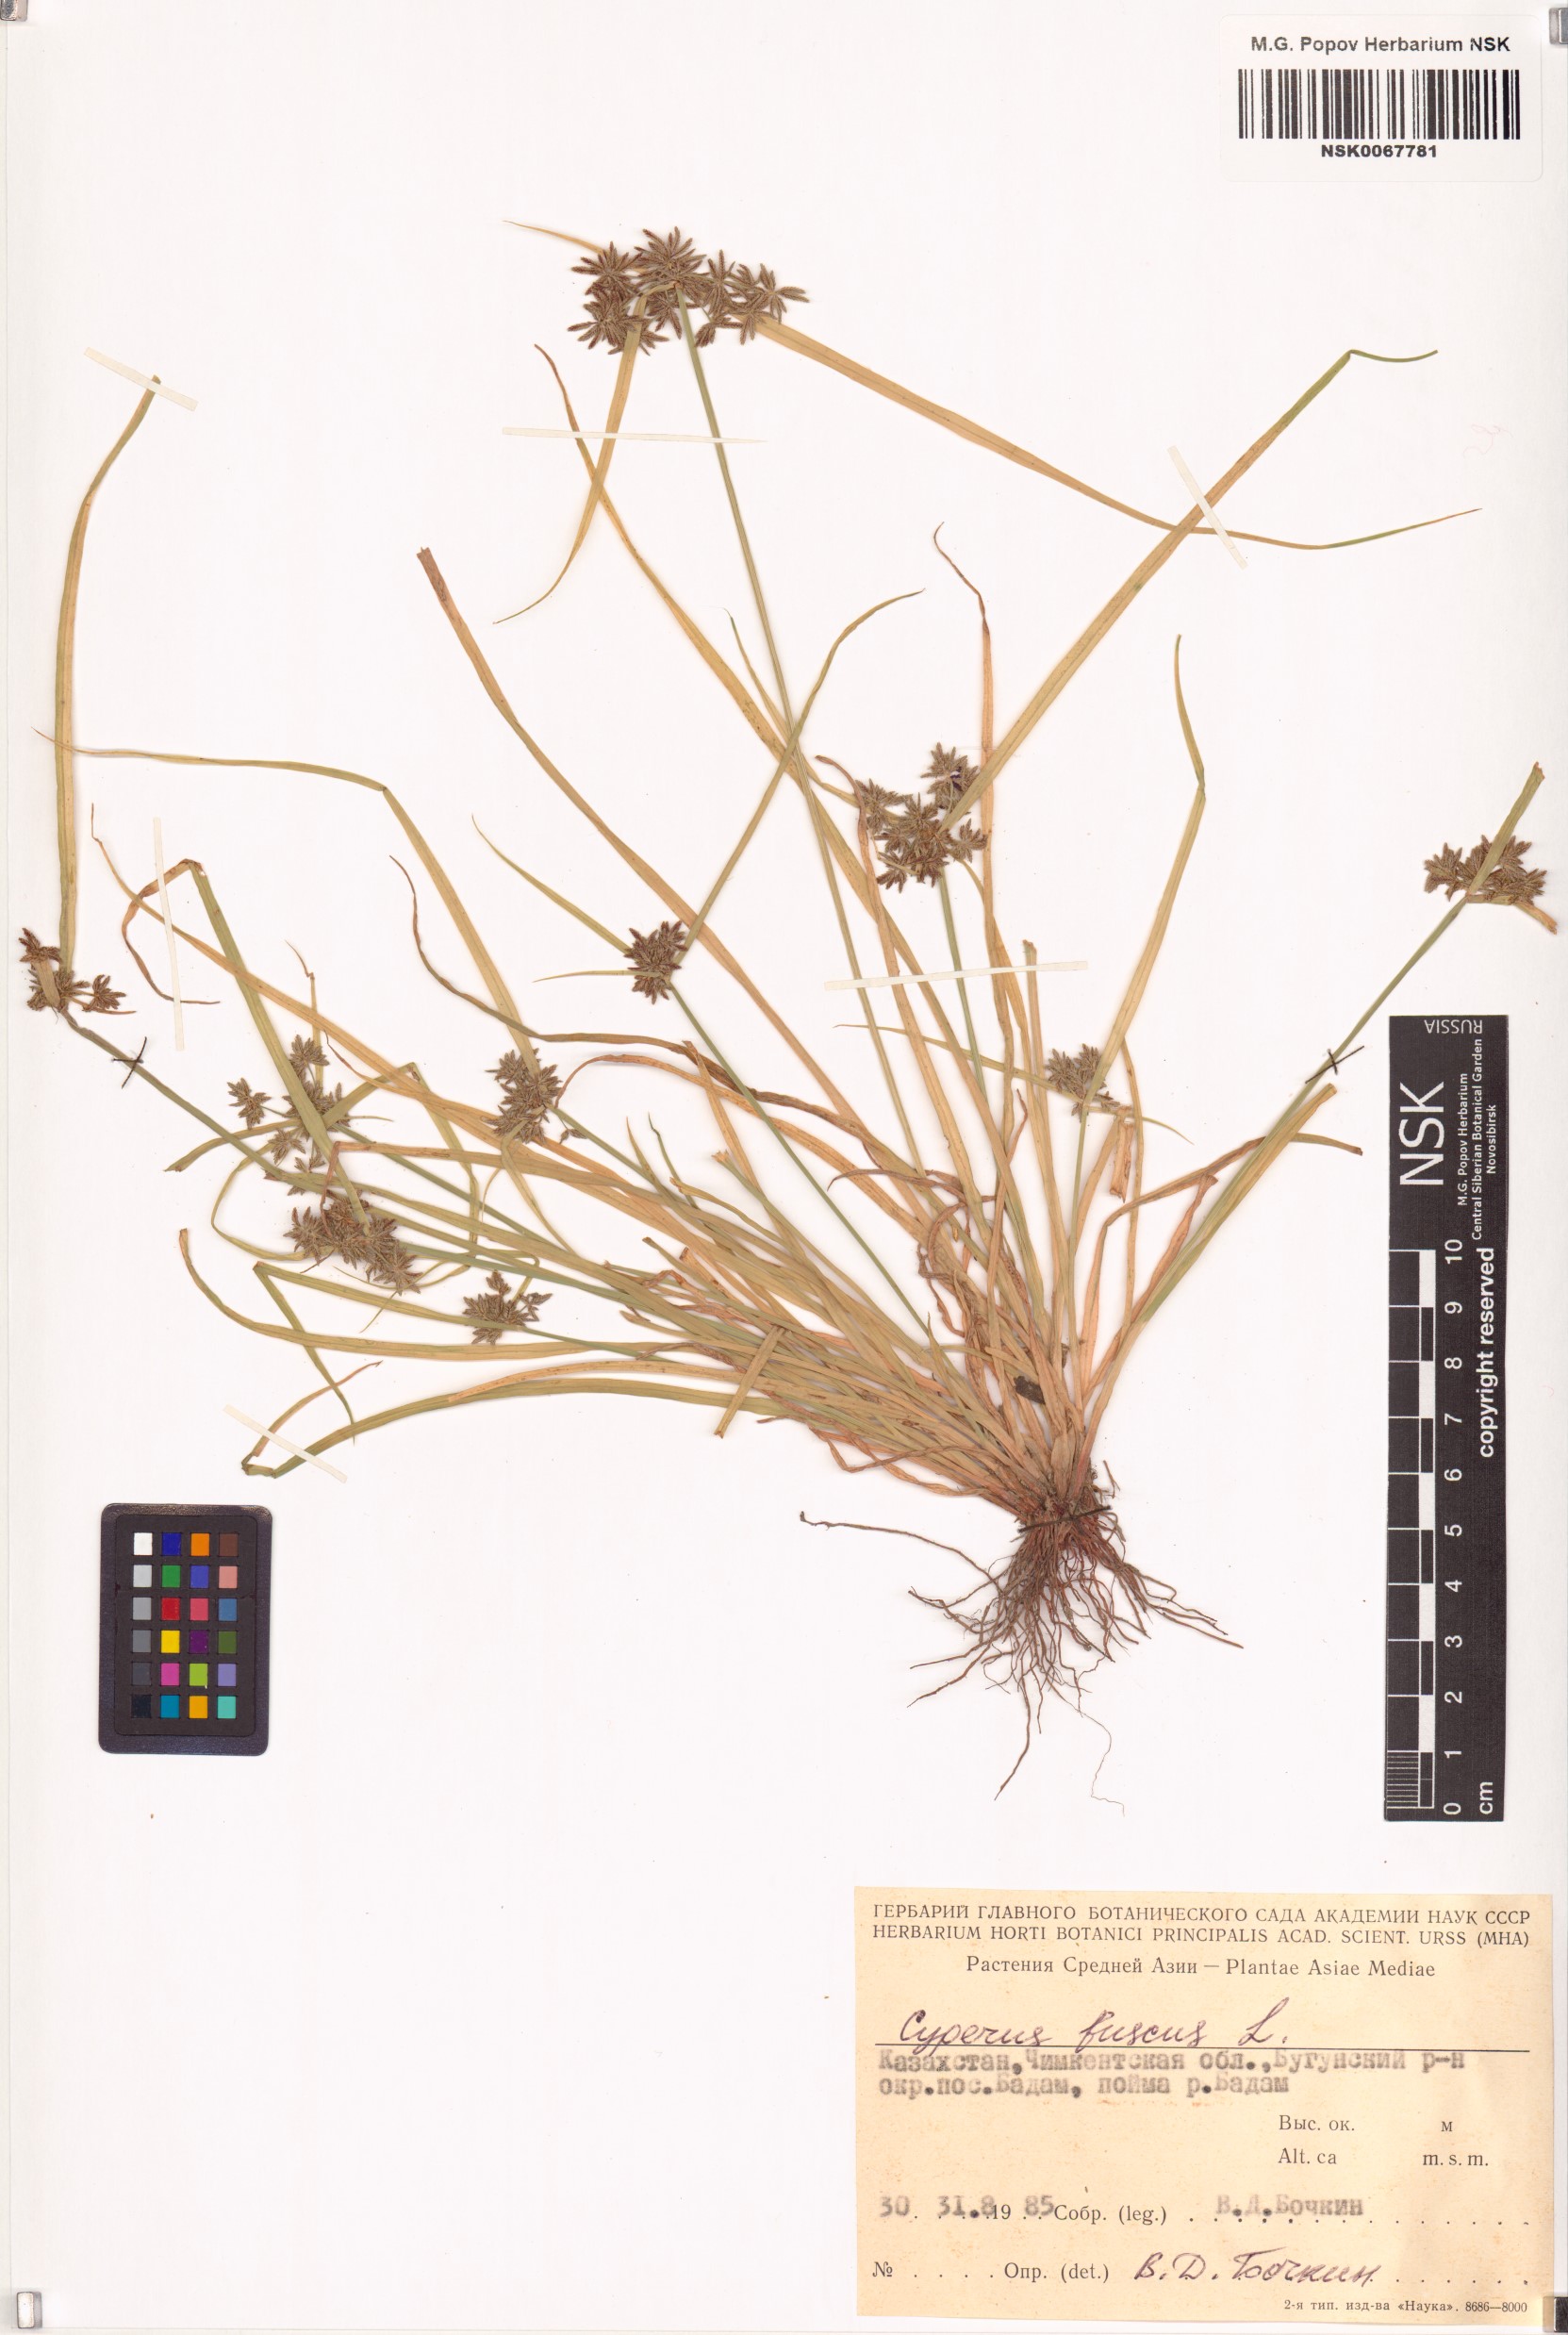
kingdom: Plantae
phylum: Tracheophyta
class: Liliopsida
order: Poales
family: Cyperaceae
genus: Cyperus
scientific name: Cyperus fuscus
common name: Brown galingale
